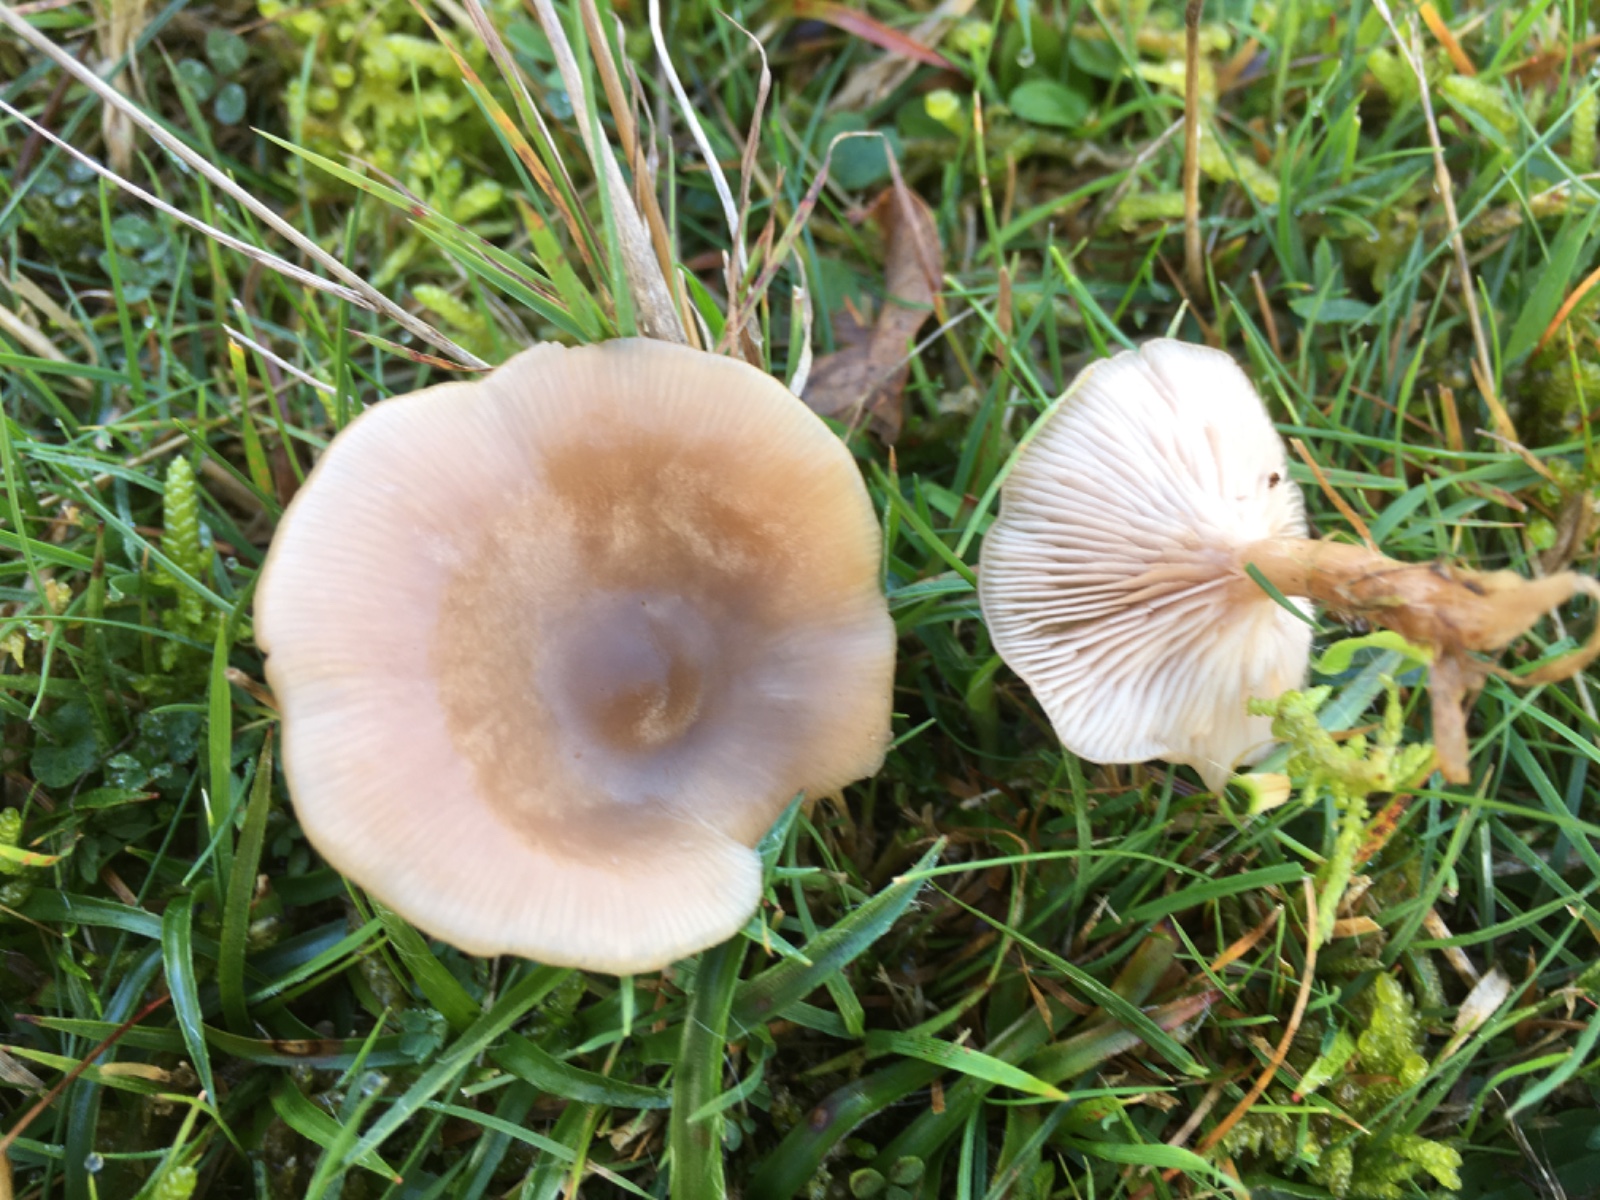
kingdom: Fungi
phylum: Basidiomycota
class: Agaricomycetes
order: Agaricales
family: Tricholomataceae
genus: Clitocybe
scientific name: Clitocybe
